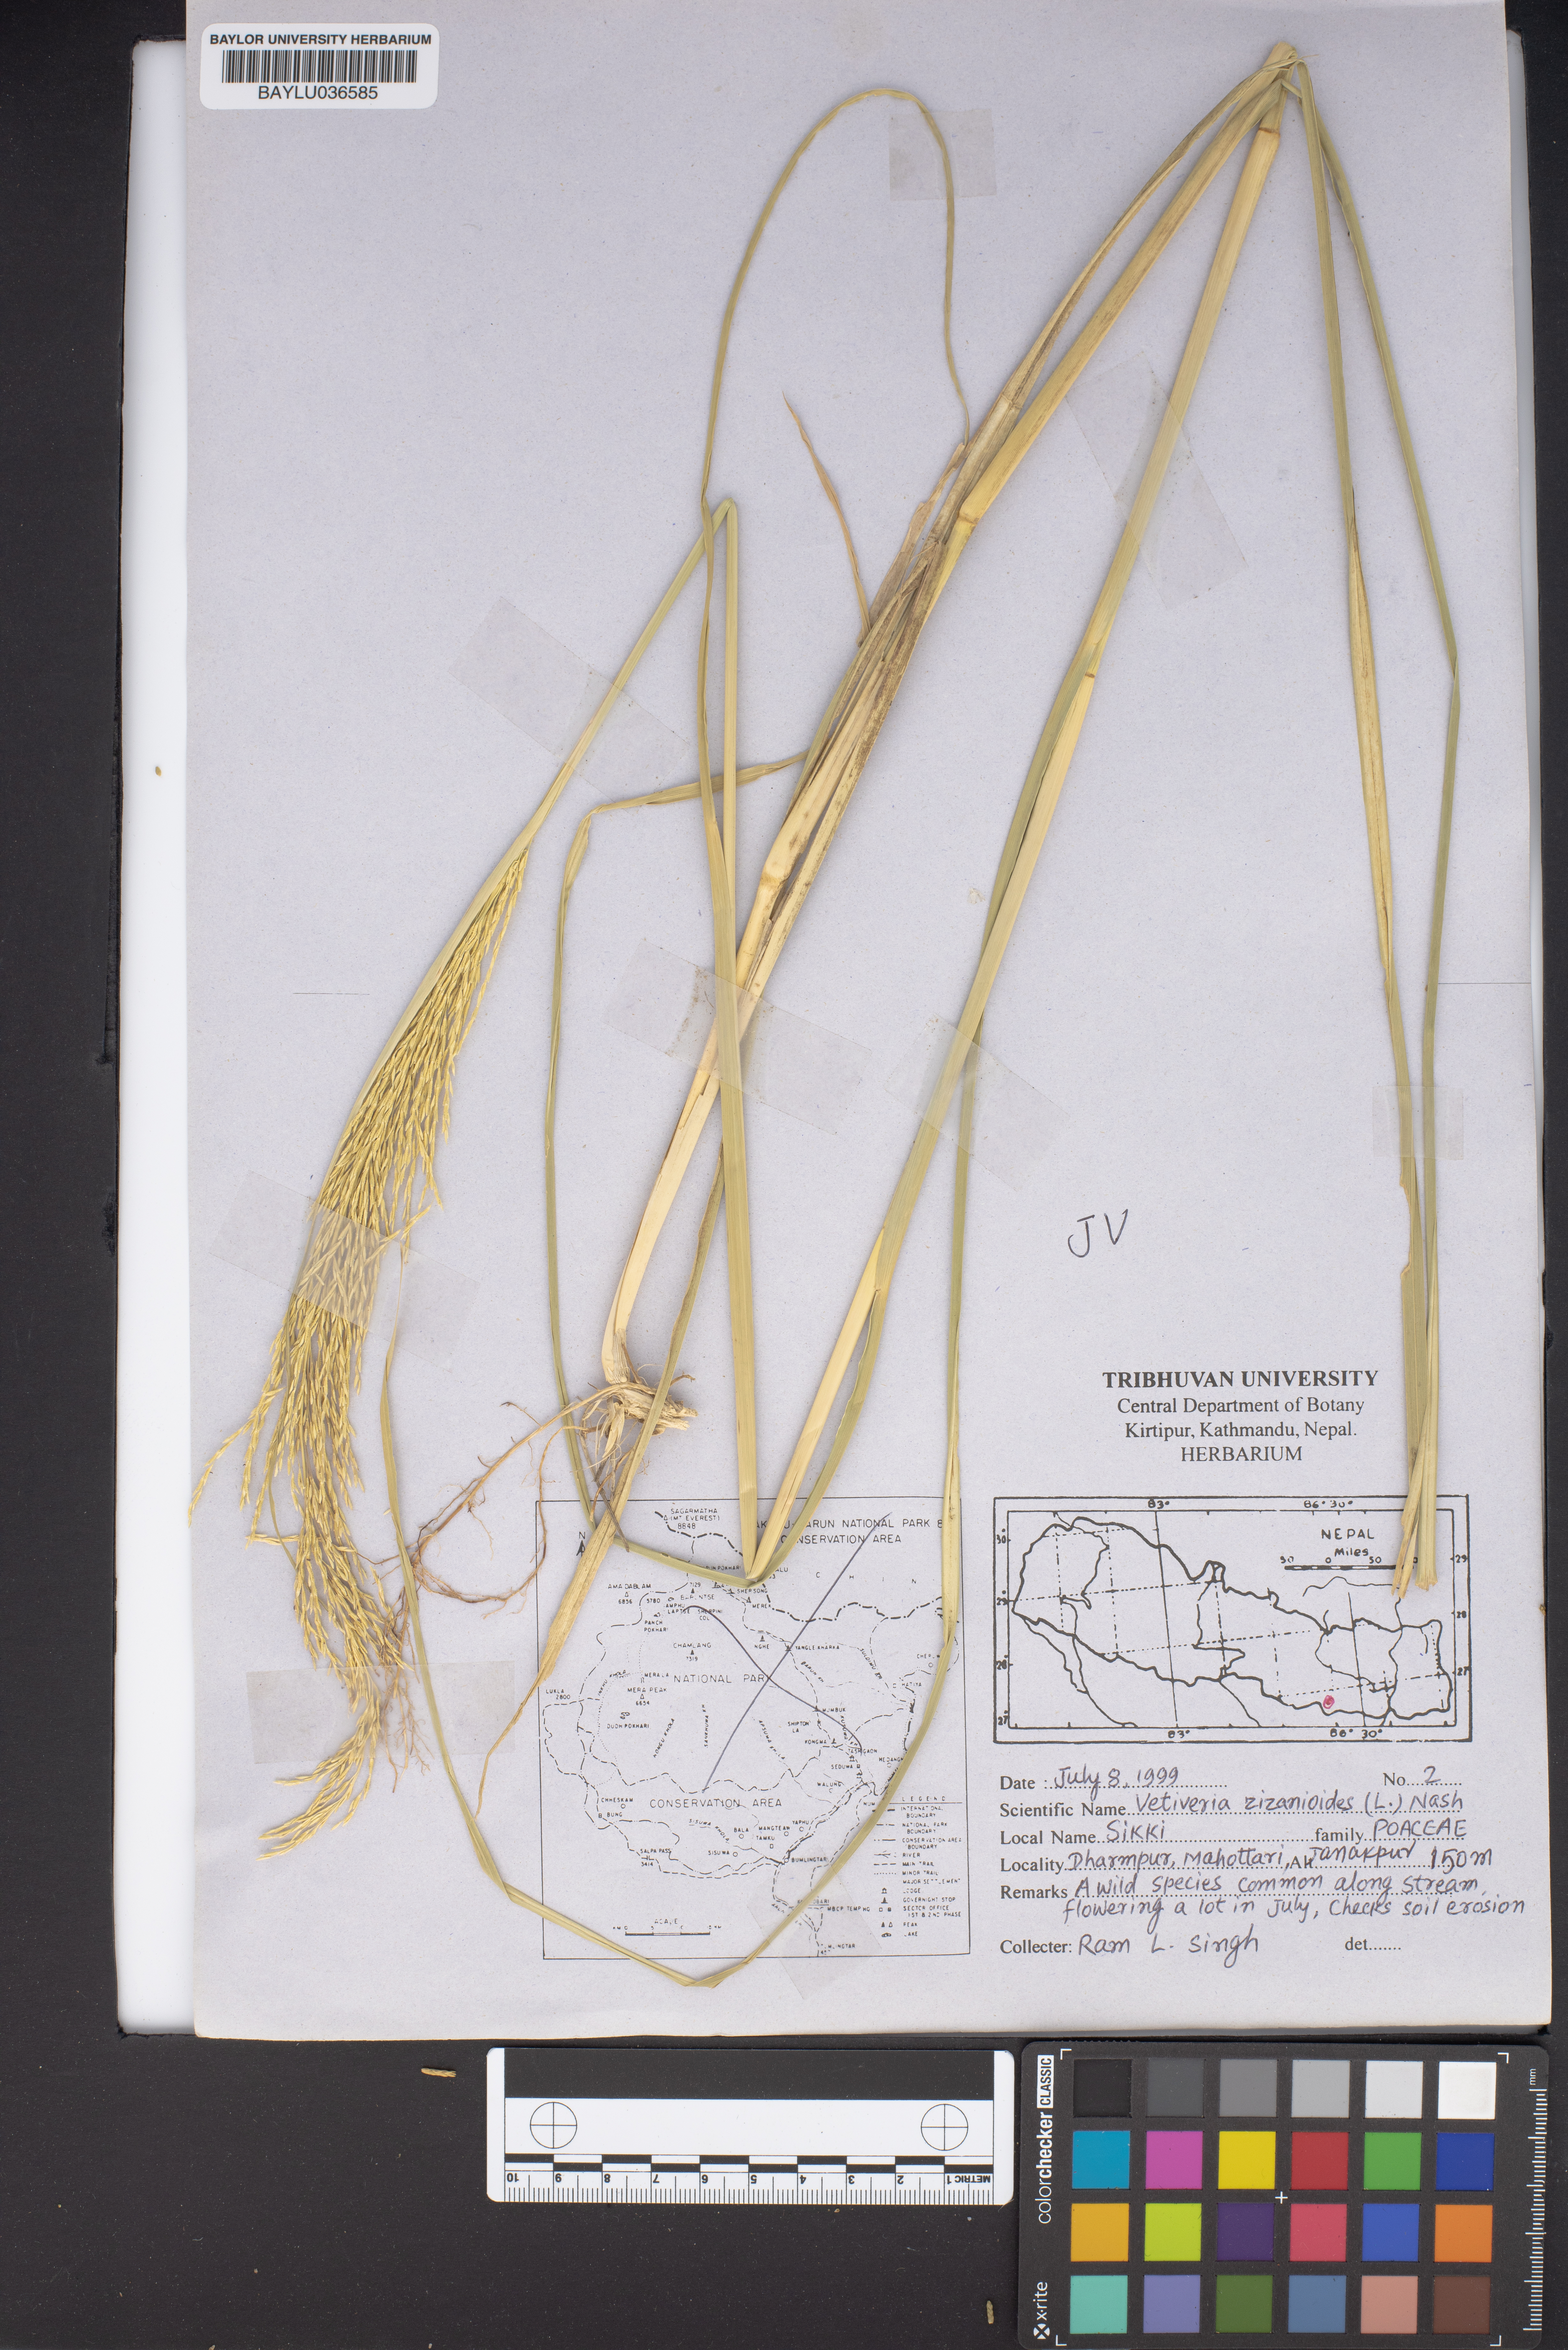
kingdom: Plantae
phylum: Tracheophyta
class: Liliopsida
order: Poales
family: Poaceae
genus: Vetiveria
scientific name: Vetiveria zizanioides
